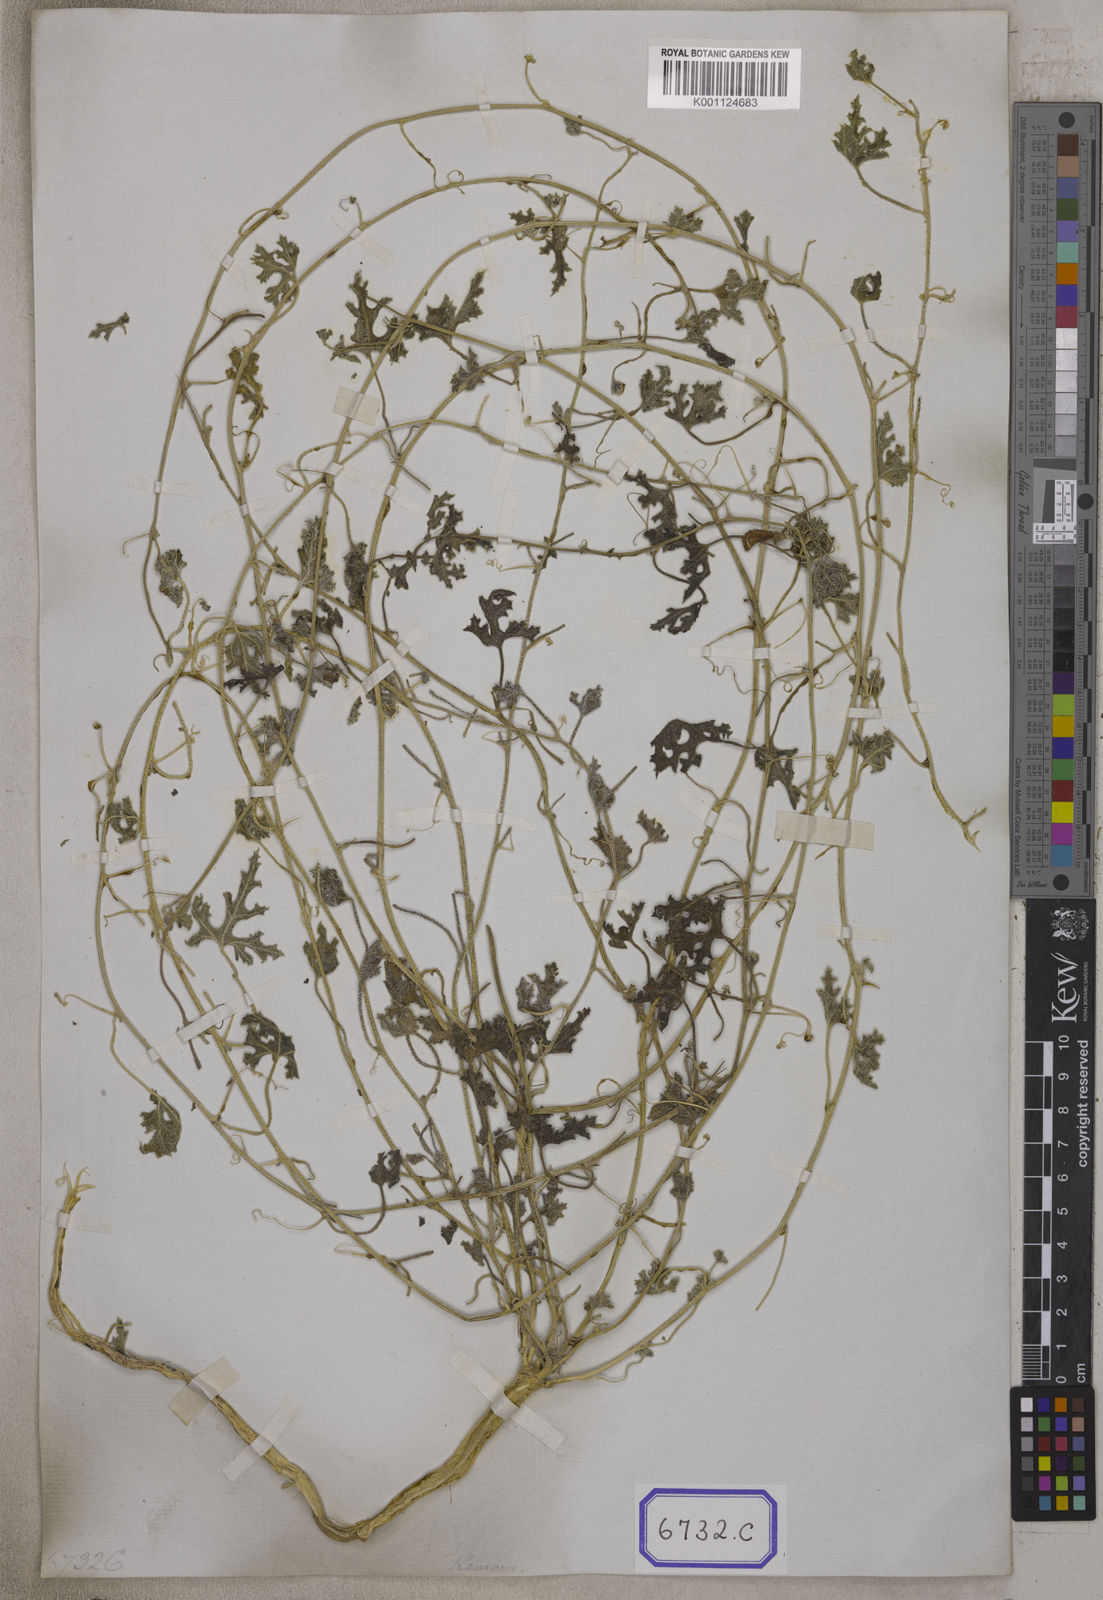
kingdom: Plantae
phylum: Tracheophyta
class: Magnoliopsida
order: Cucurbitales
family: Cucurbitaceae
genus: Citrullus
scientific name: Citrullus colocynthis
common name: Colocynth
